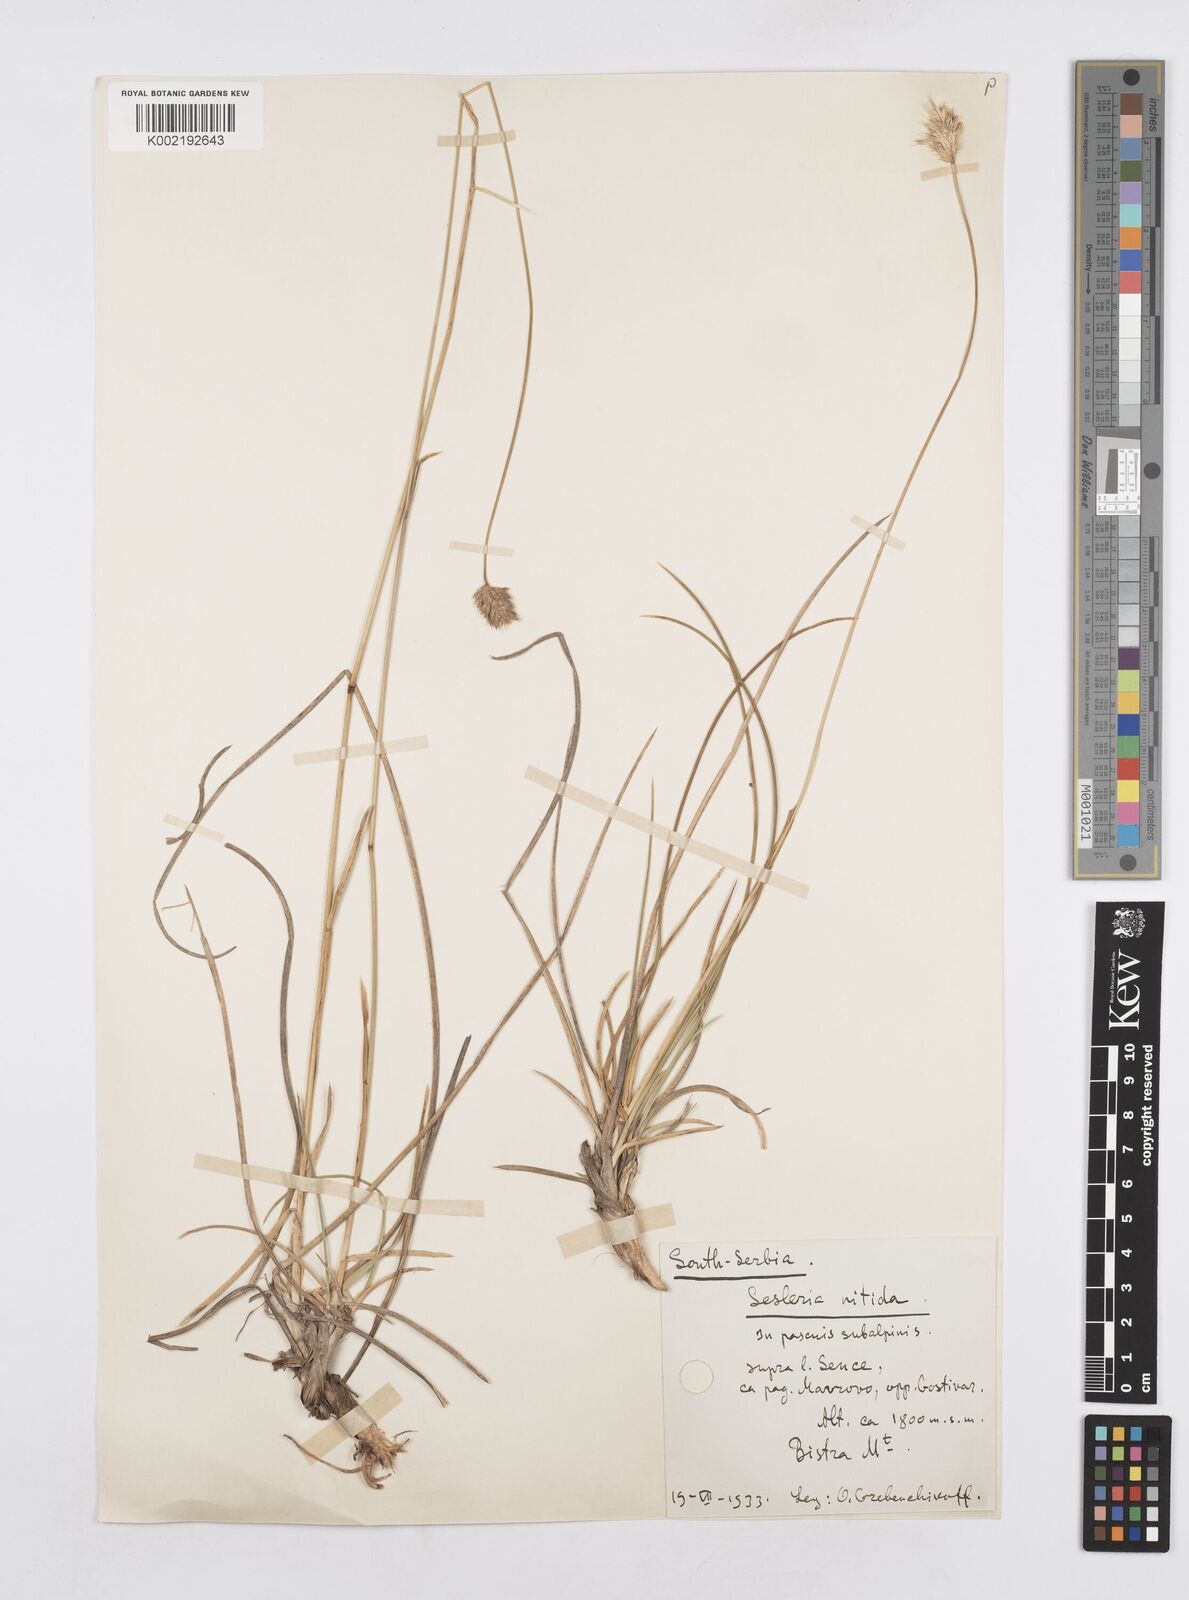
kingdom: Plantae
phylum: Tracheophyta
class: Liliopsida
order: Poales
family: Poaceae
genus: Sesleria
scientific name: Sesleria robusta
